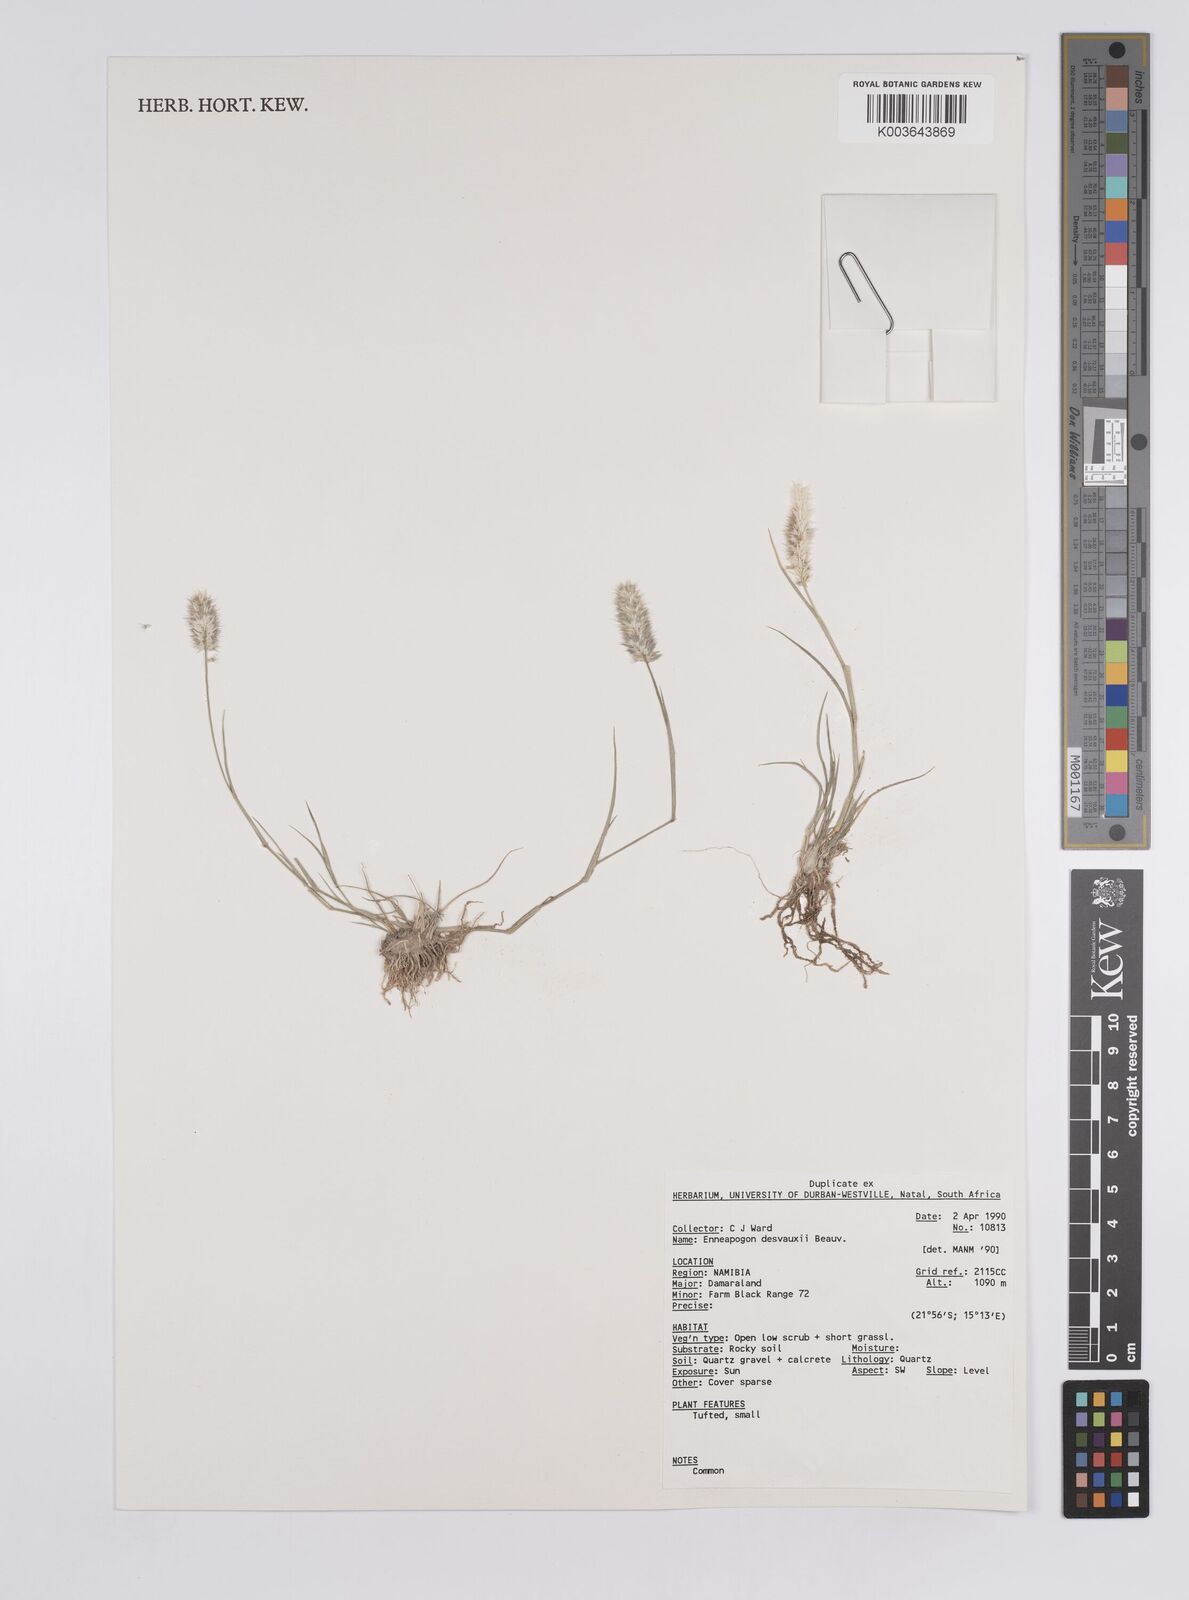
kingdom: Plantae
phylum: Tracheophyta
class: Liliopsida
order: Poales
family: Poaceae
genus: Enneapogon
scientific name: Enneapogon desvauxii
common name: Feather pappus grass
